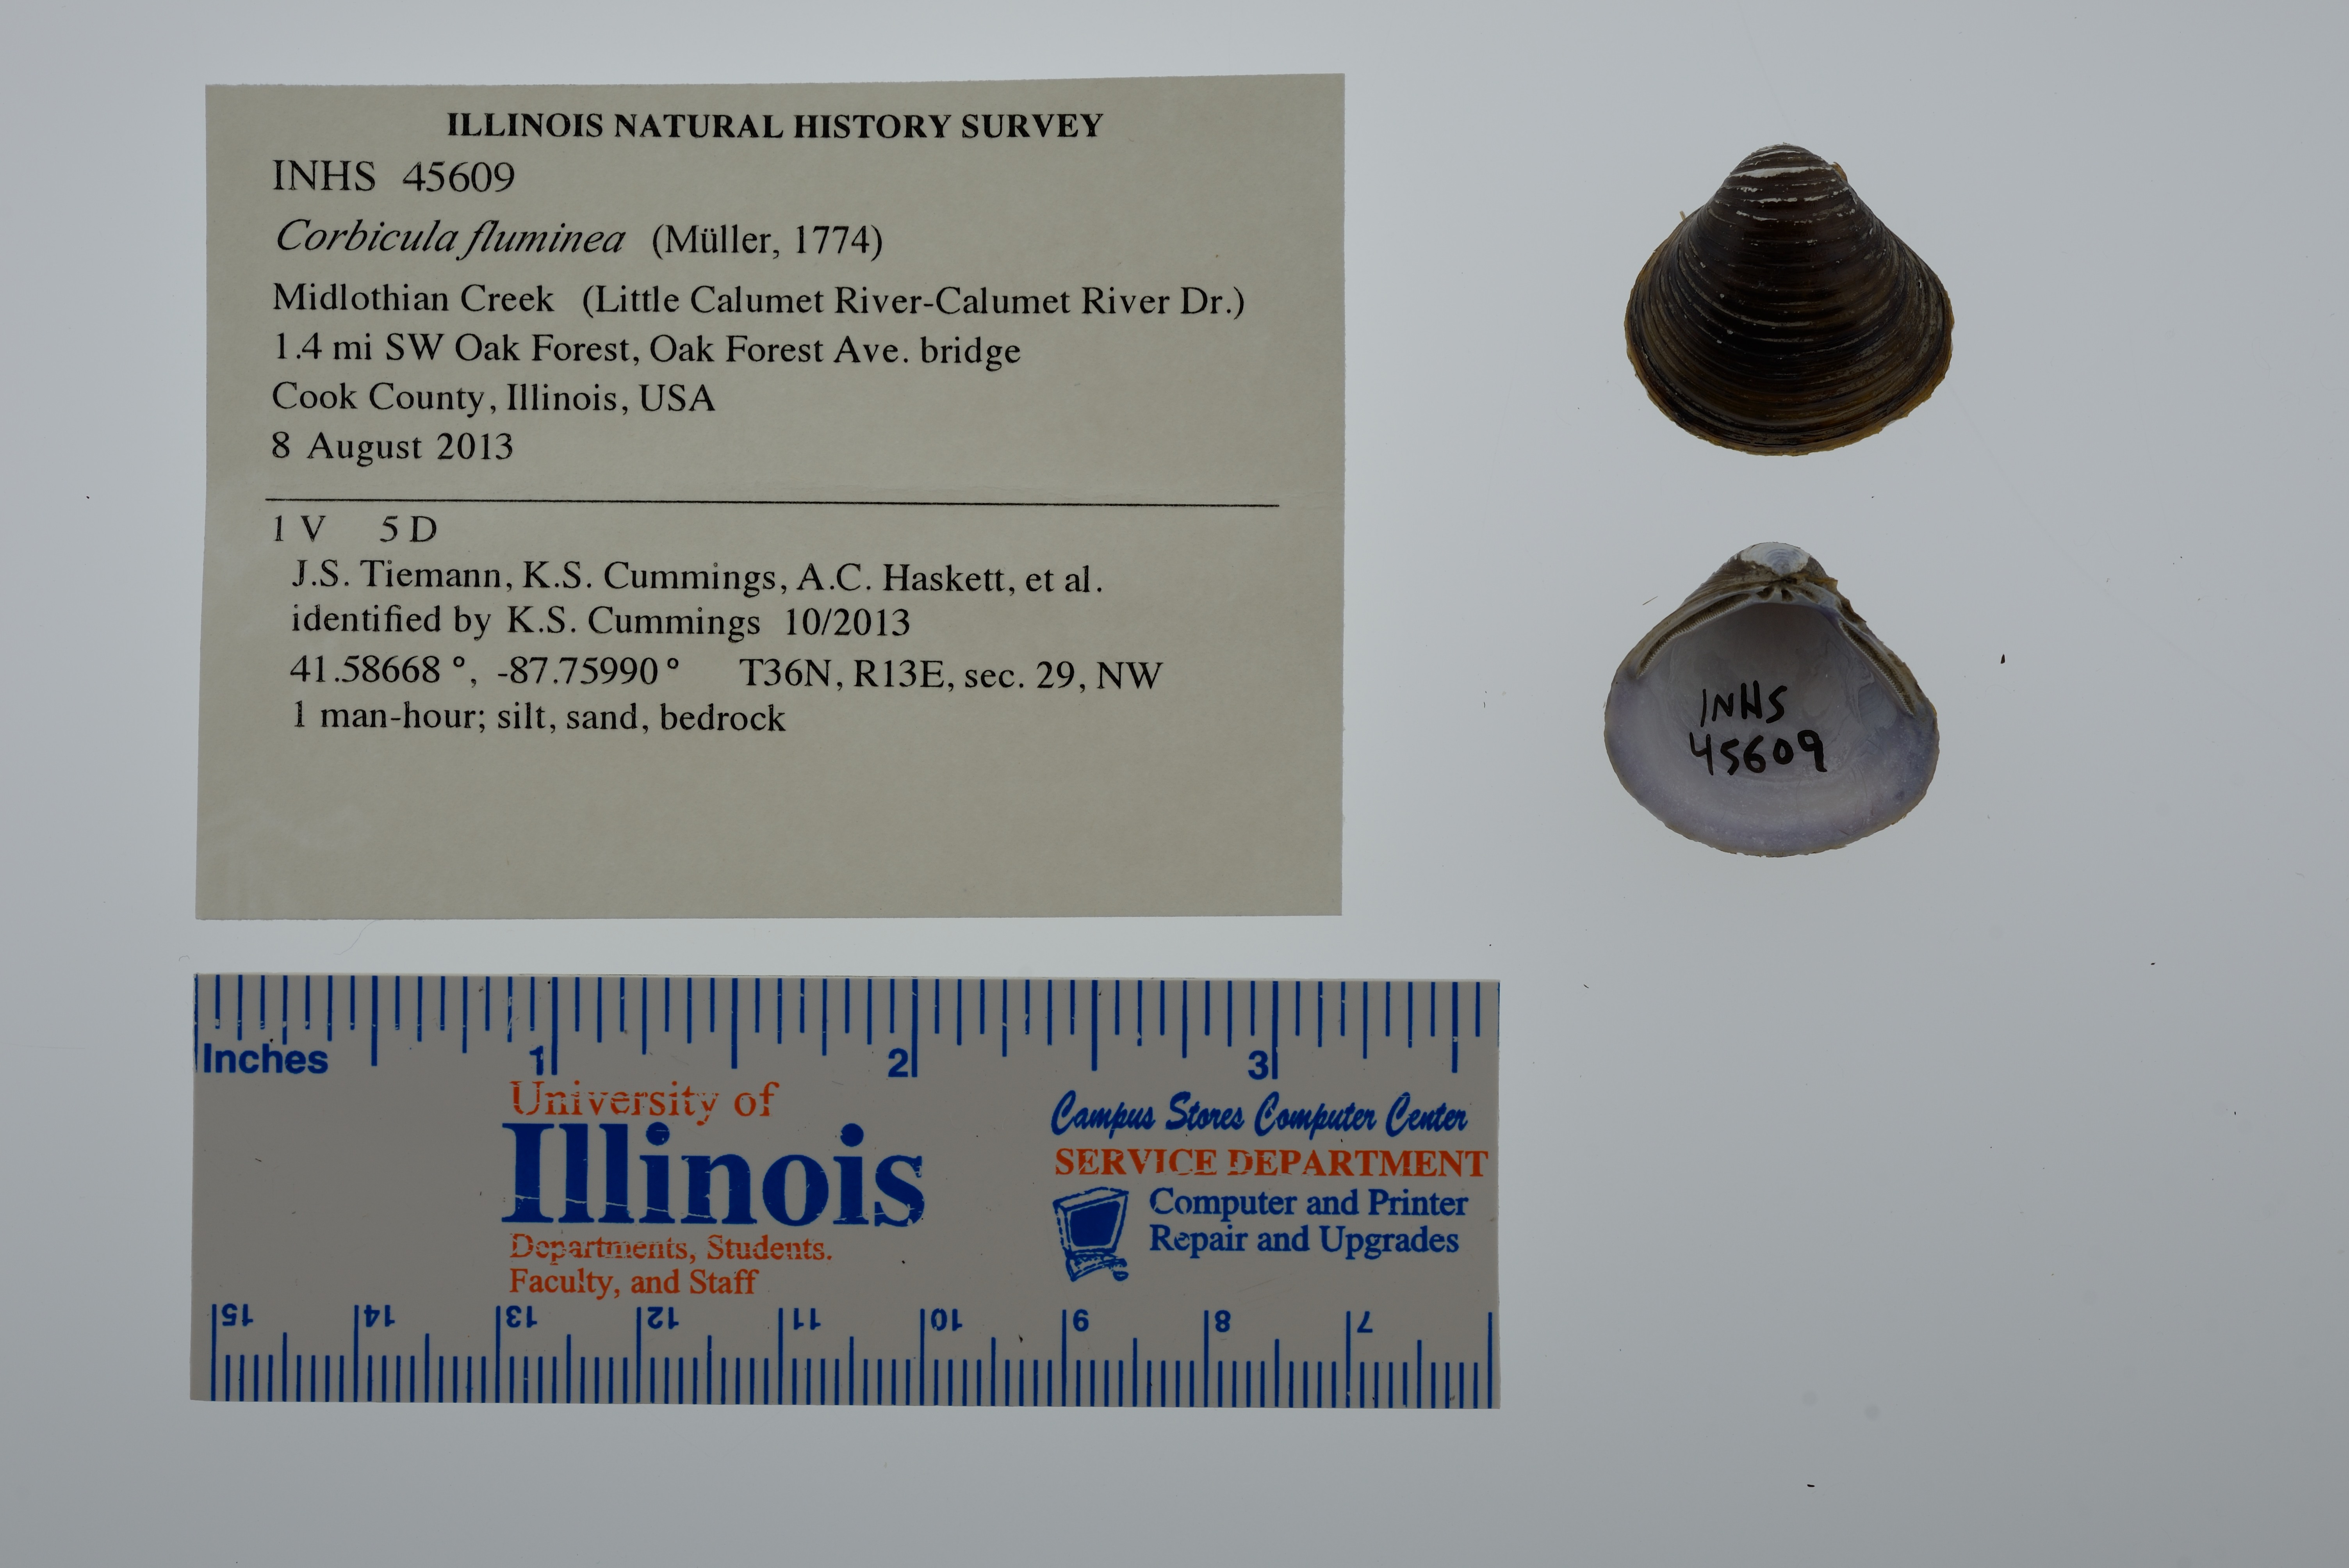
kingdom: Animalia
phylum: Mollusca
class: Bivalvia
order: Venerida
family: Cyrenidae
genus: Corbicula
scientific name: Corbicula fluminea
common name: Asian clam
